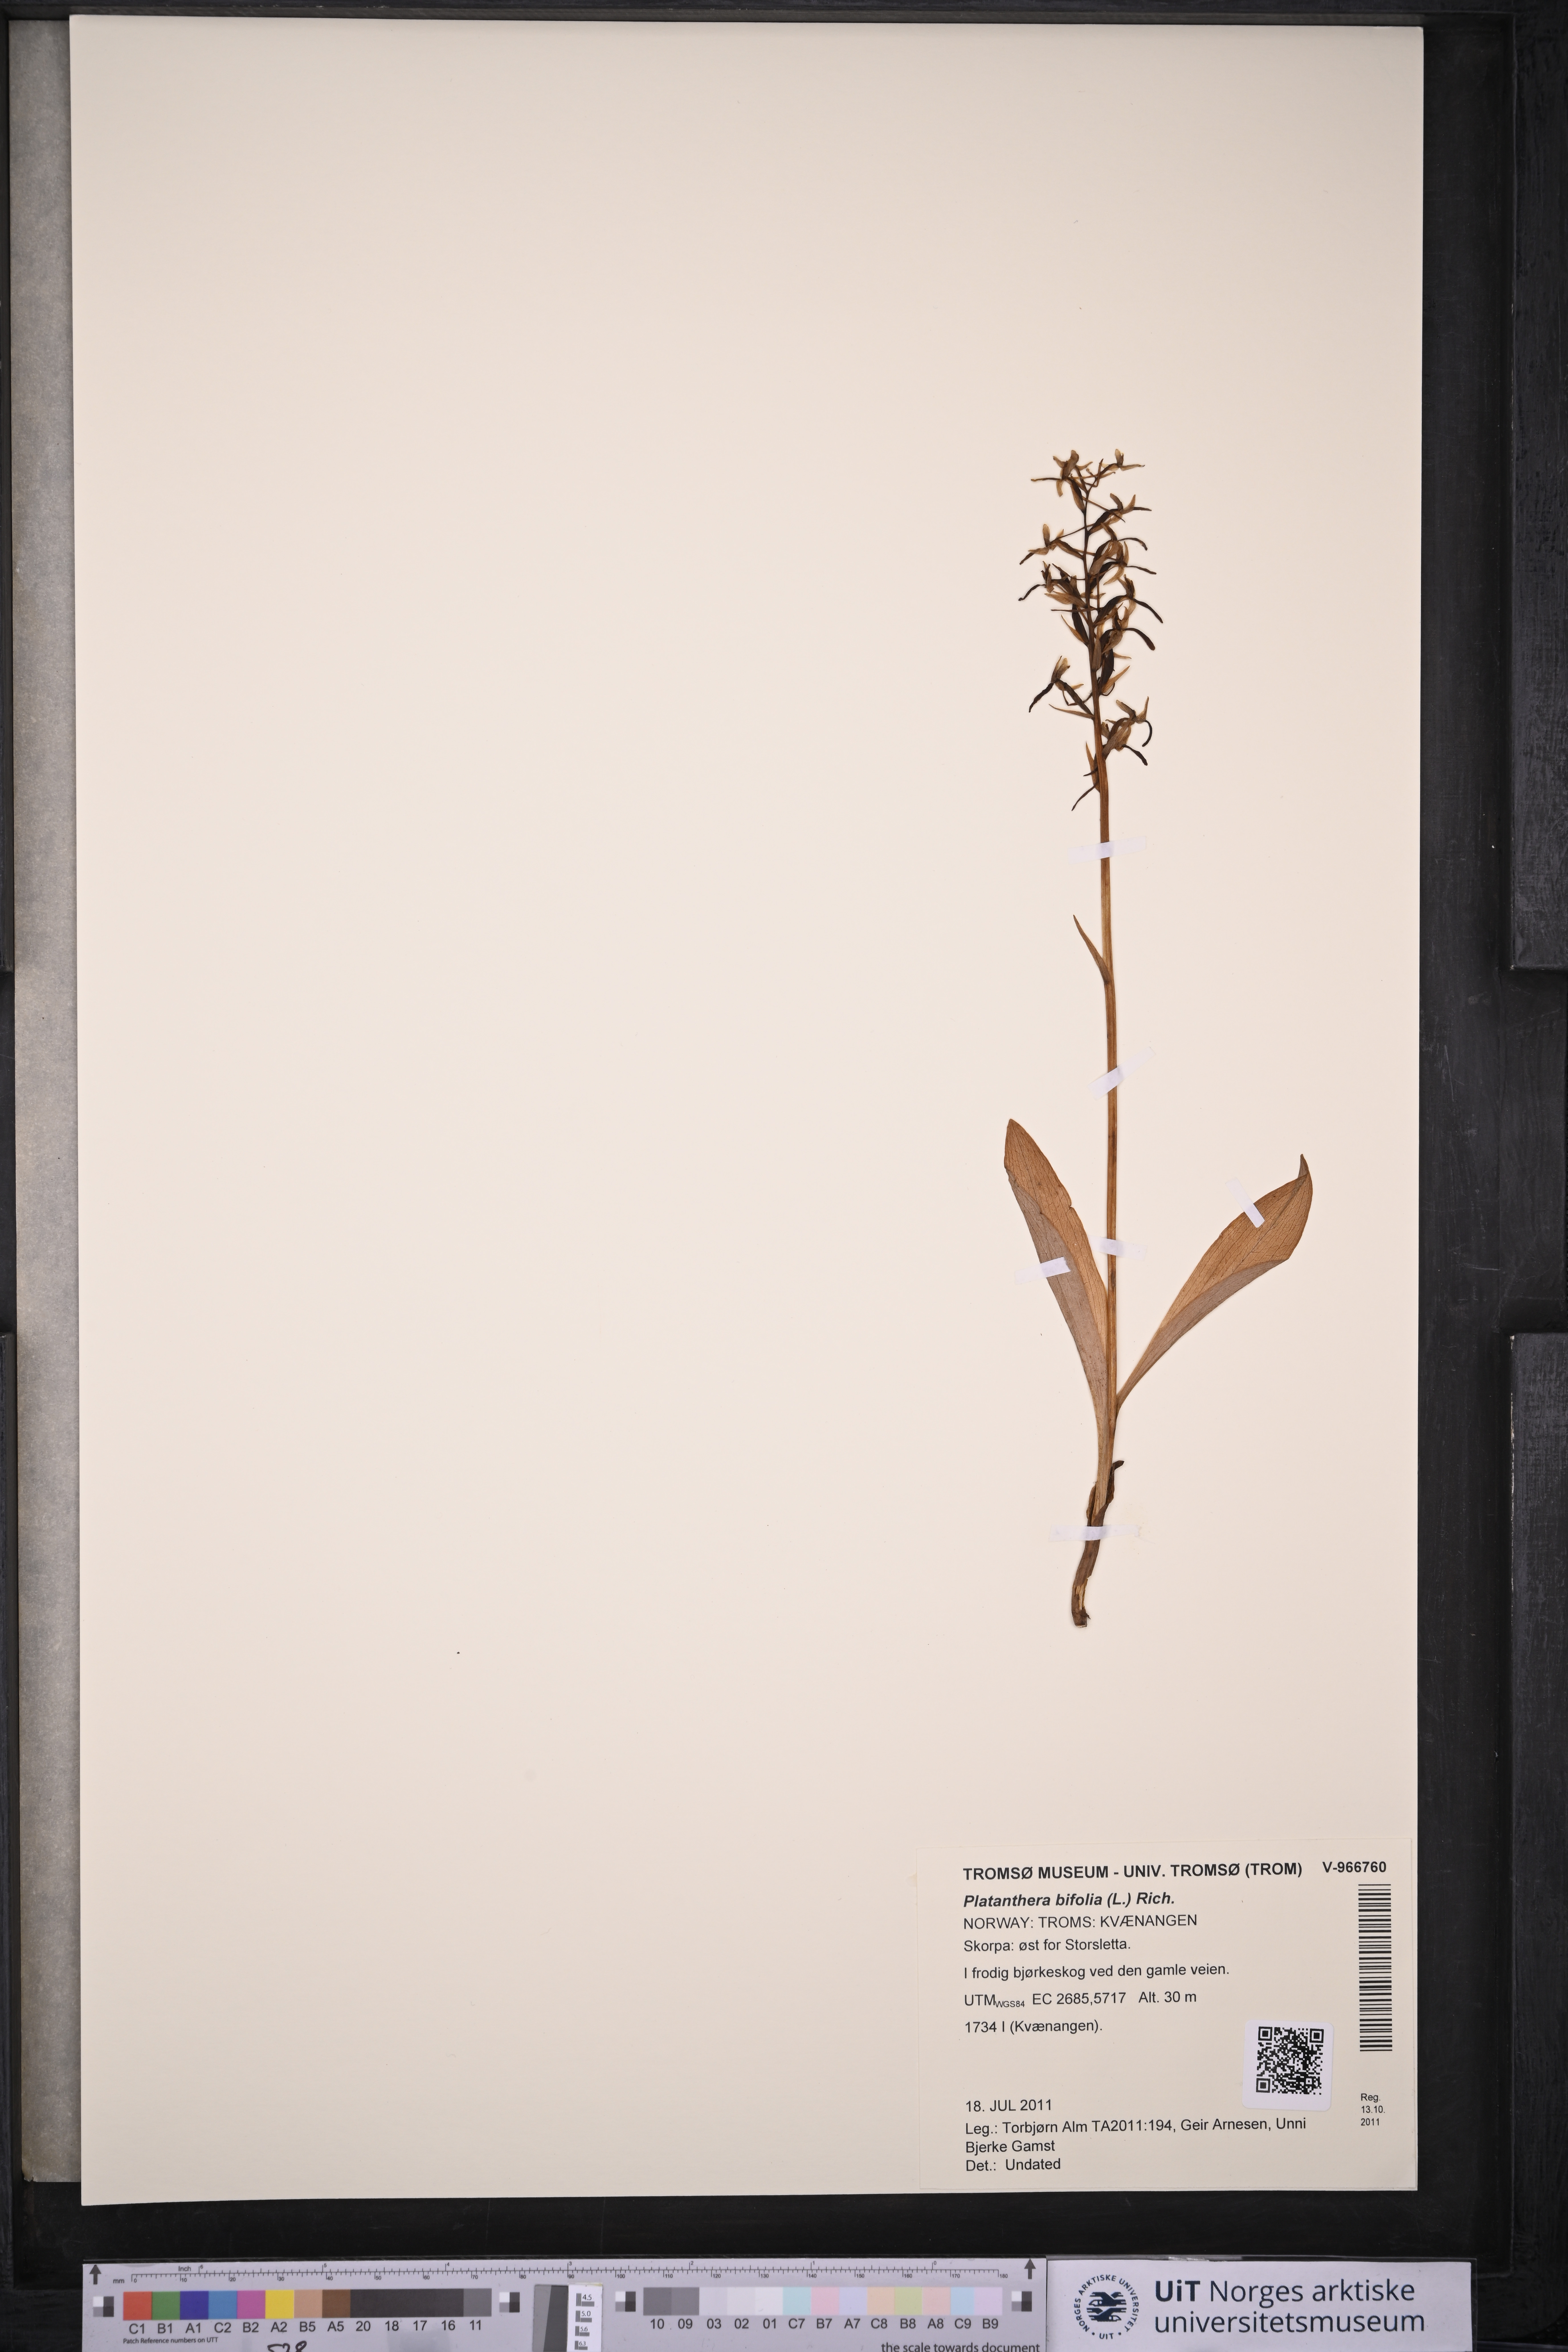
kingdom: Plantae
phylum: Tracheophyta
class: Liliopsida
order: Asparagales
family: Orchidaceae
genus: Platanthera
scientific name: Platanthera bifolia
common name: Lesser butterfly-orchid
